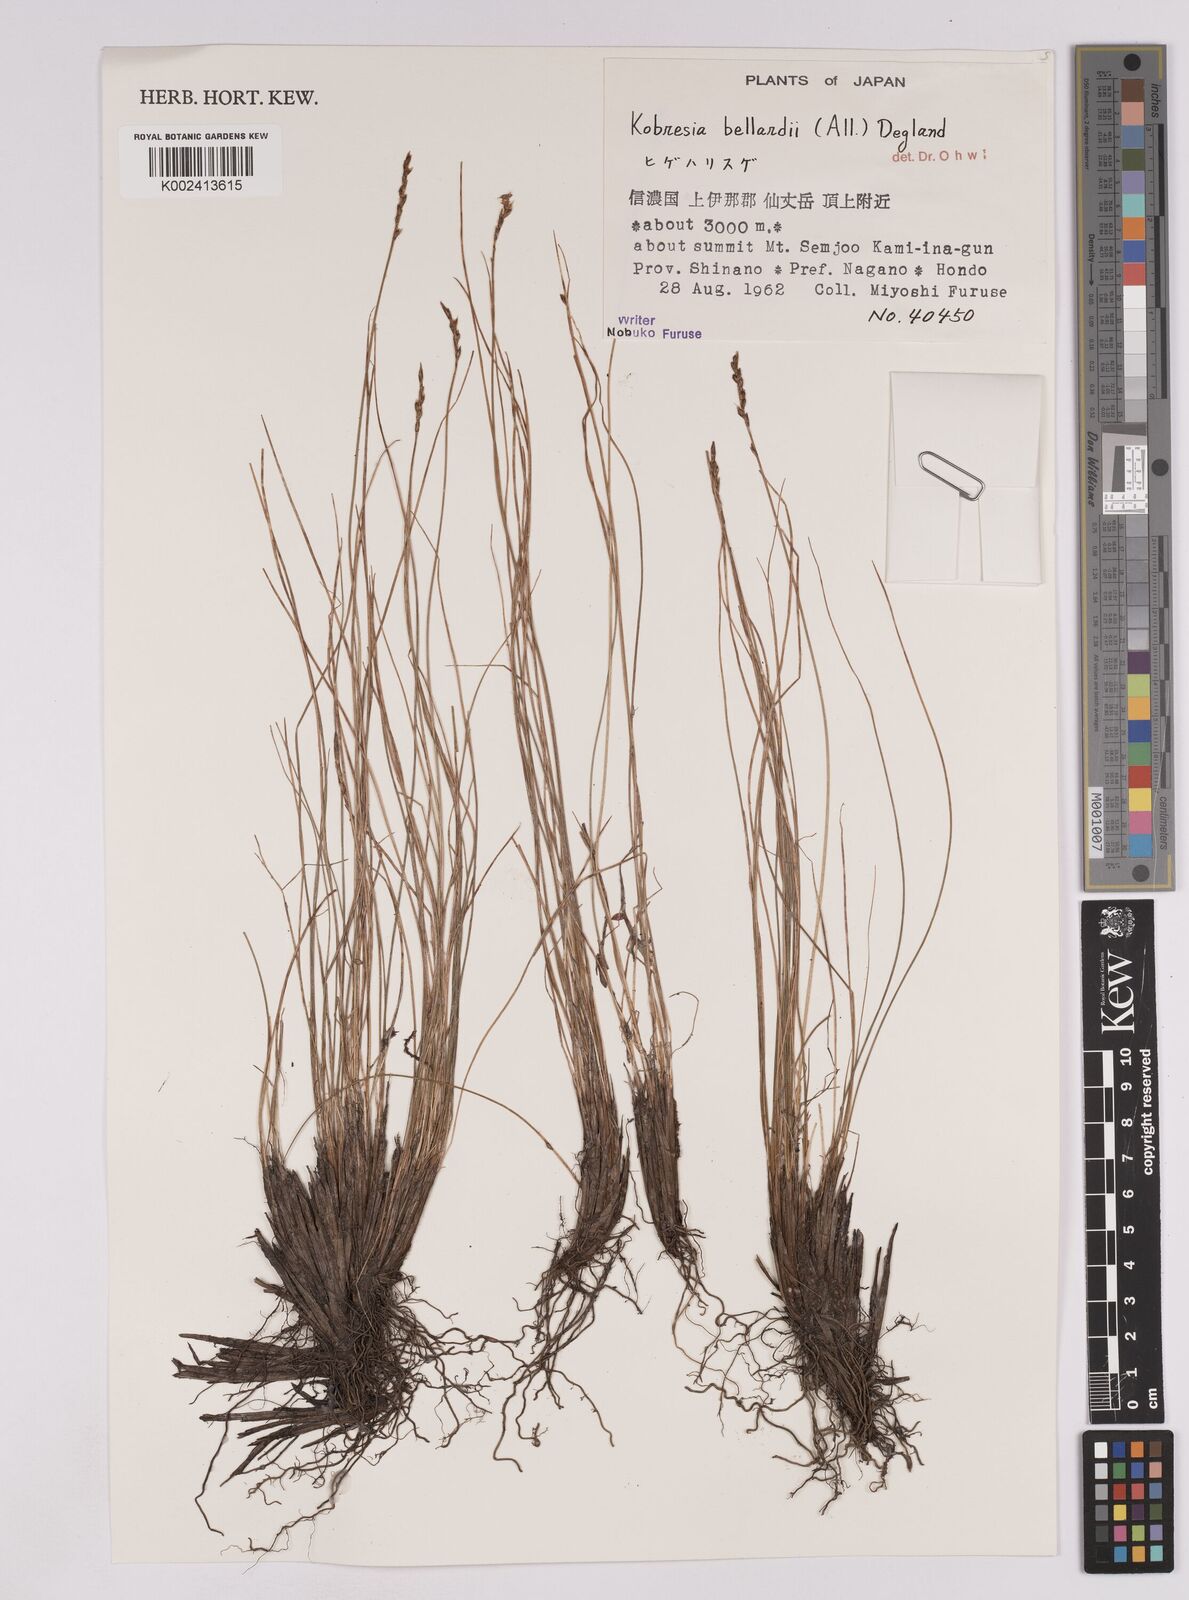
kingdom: Plantae
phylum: Tracheophyta
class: Liliopsida
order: Poales
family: Cyperaceae
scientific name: Cyperaceae
